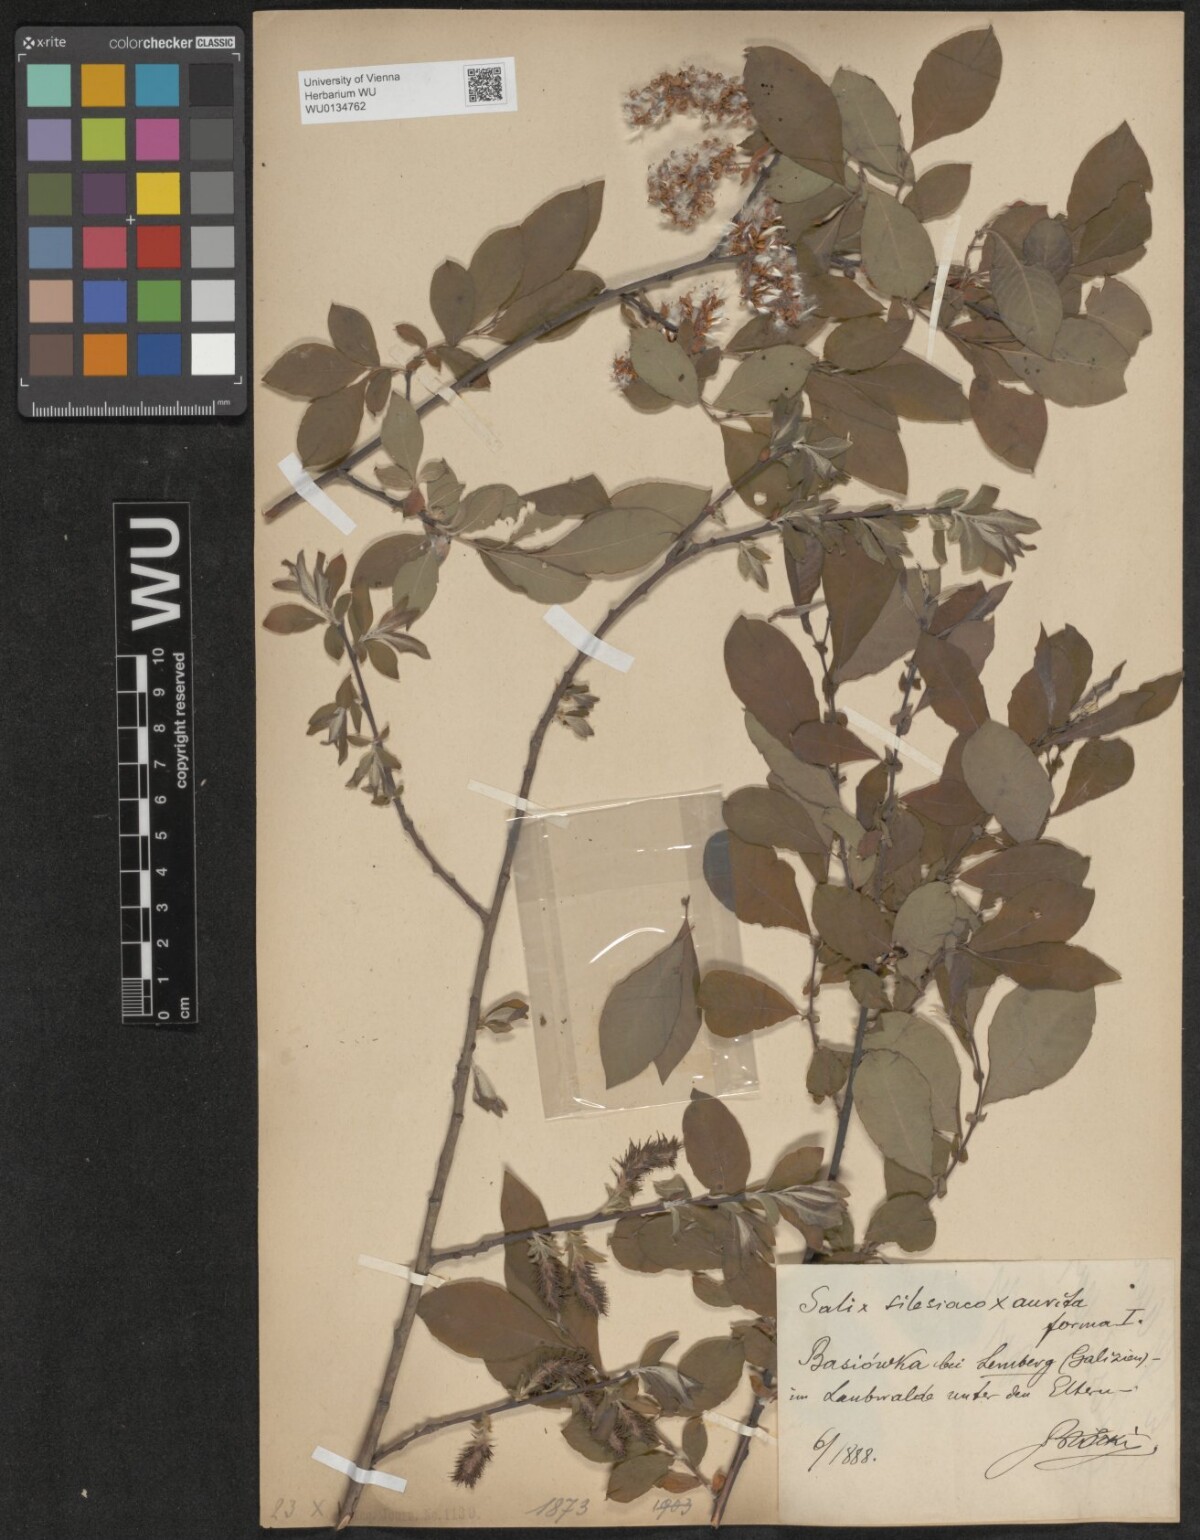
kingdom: Plantae
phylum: Tracheophyta
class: Magnoliopsida
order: Malpighiales
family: Salicaceae
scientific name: Salicaceae
